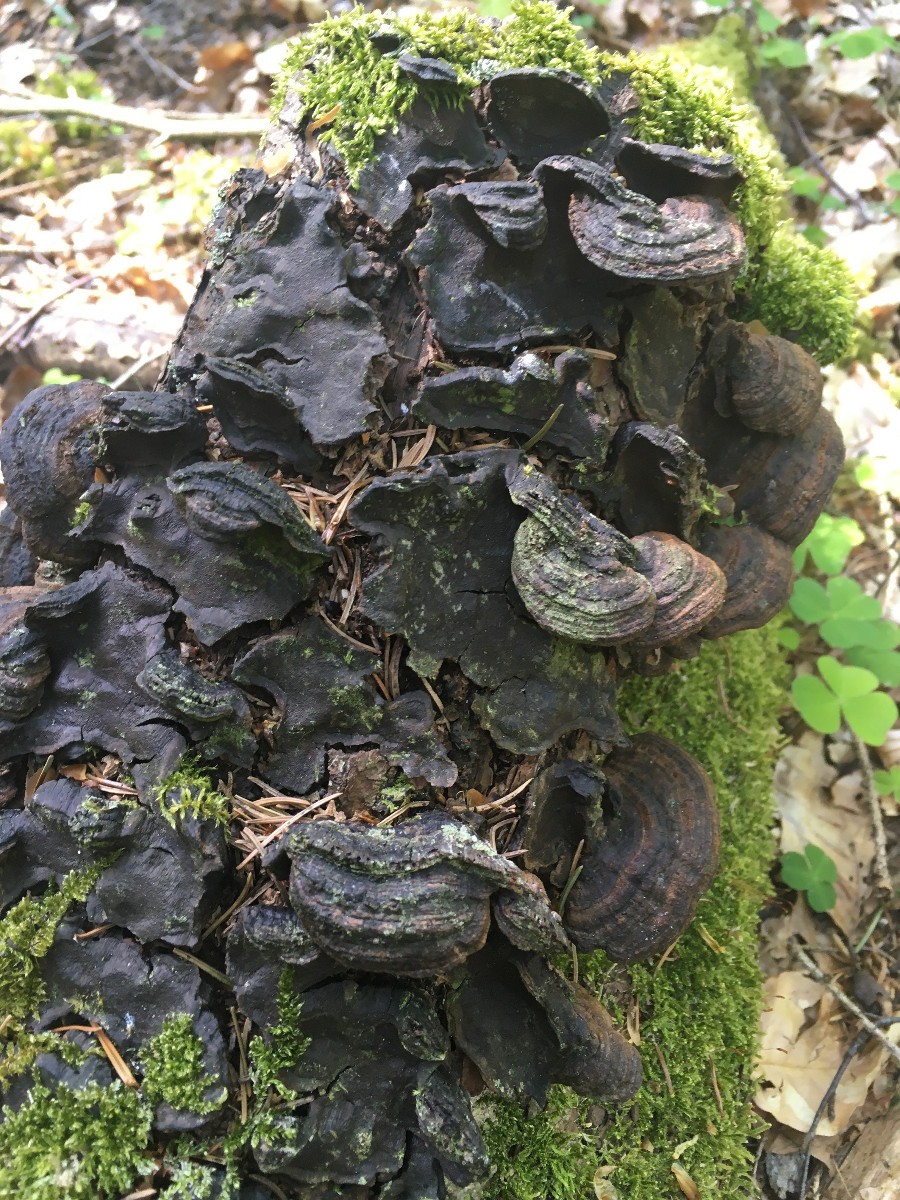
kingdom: Fungi
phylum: Basidiomycota
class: Agaricomycetes
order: Hymenochaetales
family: Hymenochaetaceae
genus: Phellinopsis
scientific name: Phellinopsis conchata
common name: pile-ildporesvamp
